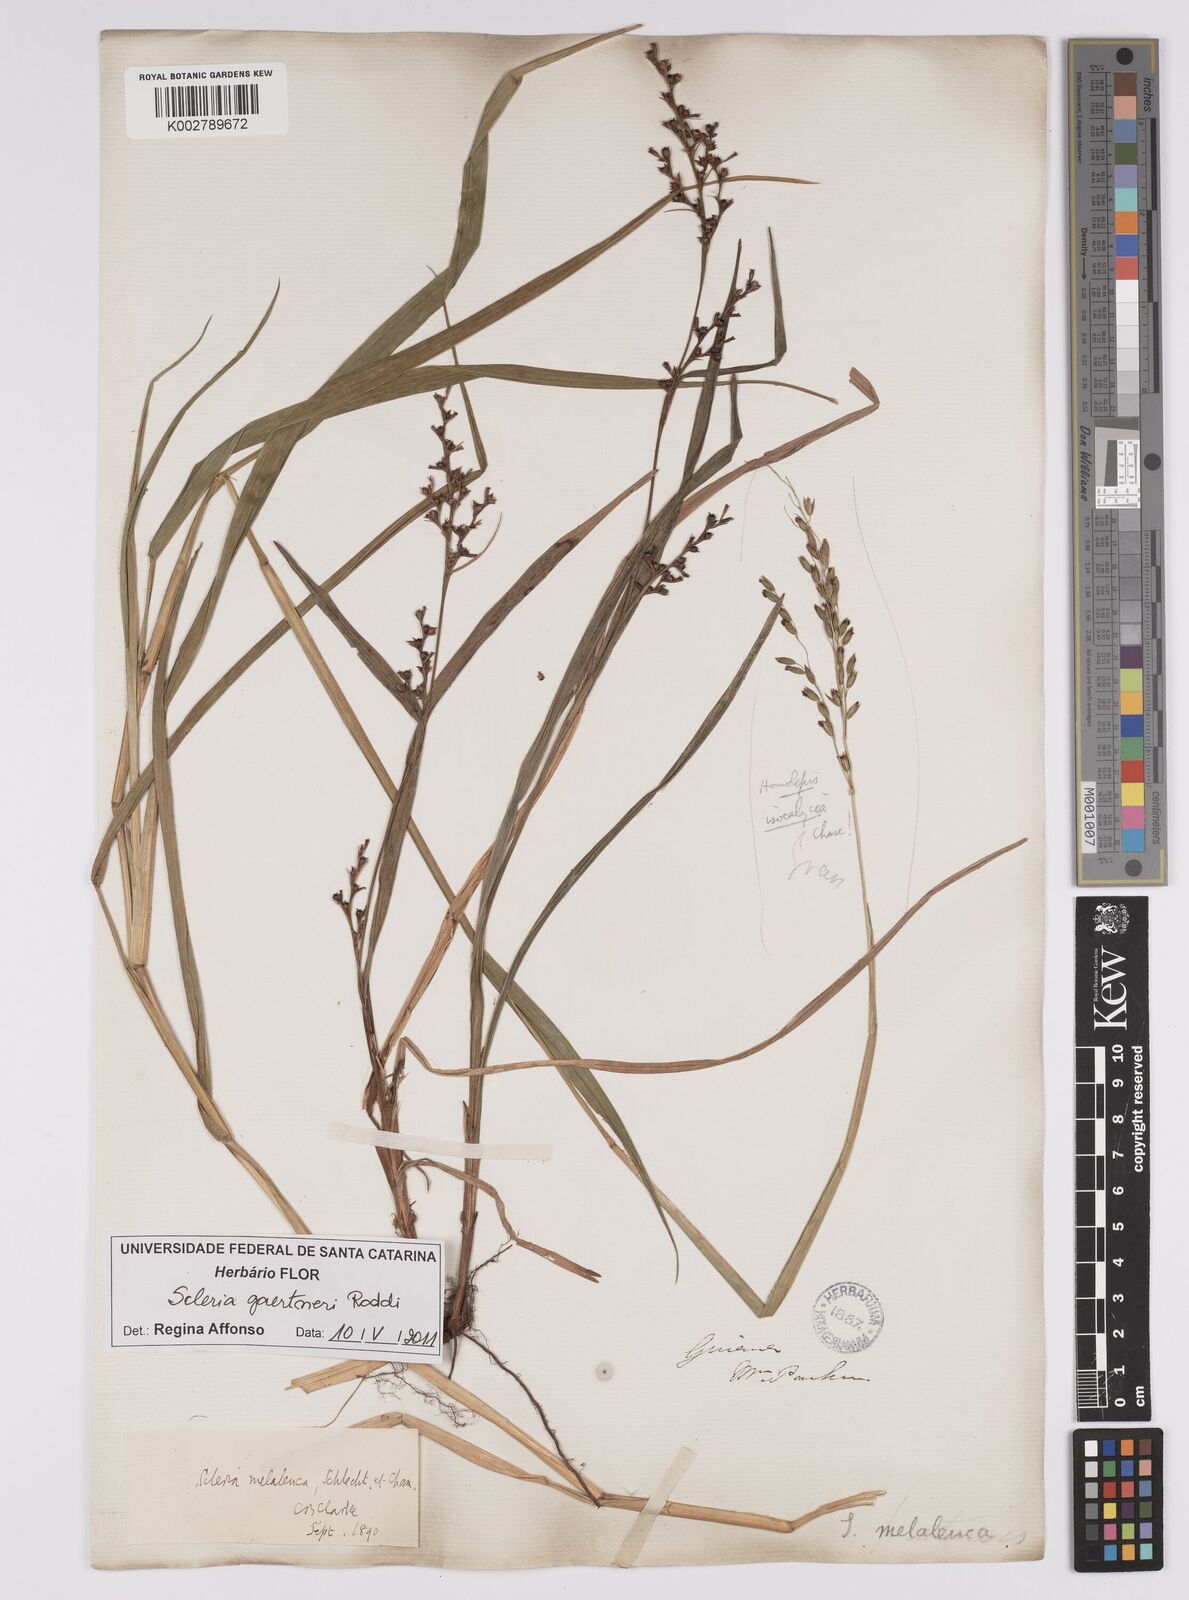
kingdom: Plantae
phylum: Tracheophyta
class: Liliopsida
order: Poales
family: Cyperaceae
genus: Scleria
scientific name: Scleria gaertneri
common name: Cortadera blanca
